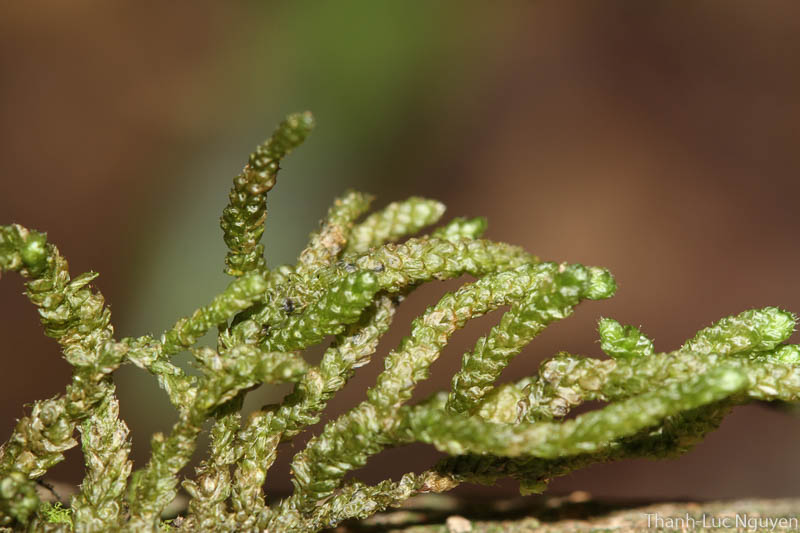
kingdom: Plantae
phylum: Bryophyta
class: Bryopsida
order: Hypnales
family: Meteoriaceae
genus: Meteorium
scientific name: Meteorium subpolytrichum
